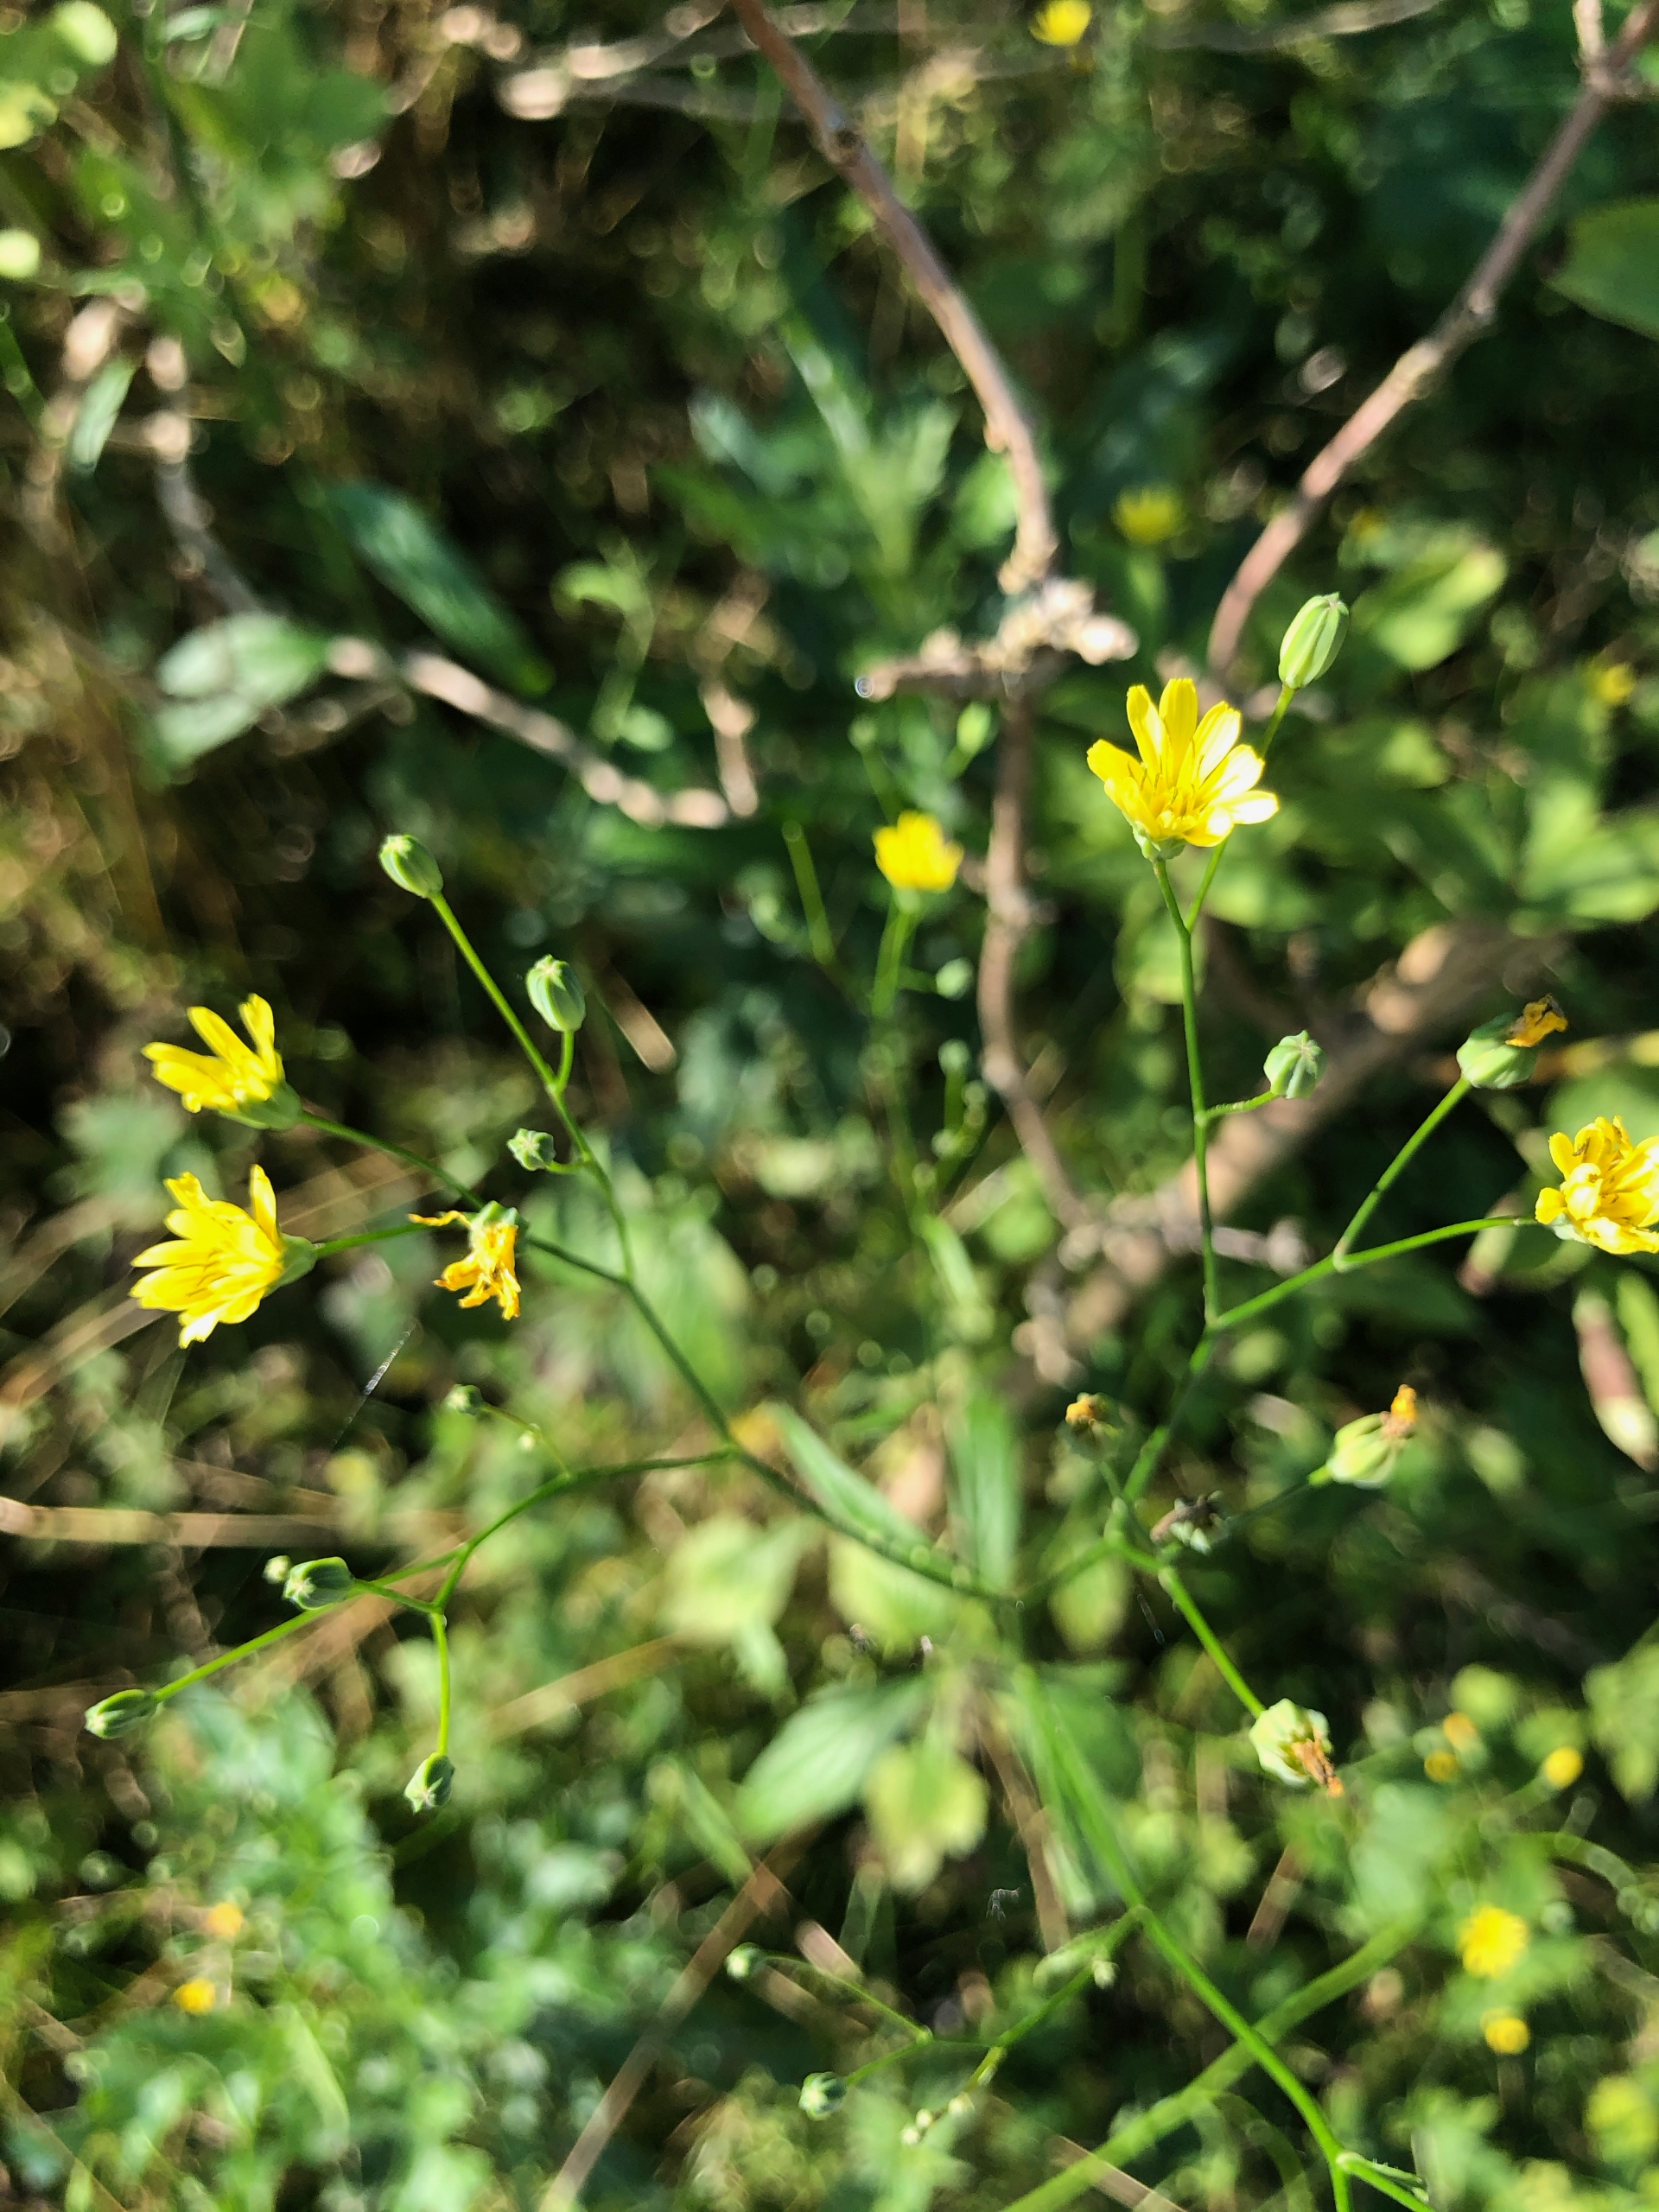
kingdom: Plantae
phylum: Tracheophyta
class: Magnoliopsida
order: Asterales
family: Asteraceae
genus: Lapsana
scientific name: Lapsana communis
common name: Haremad
